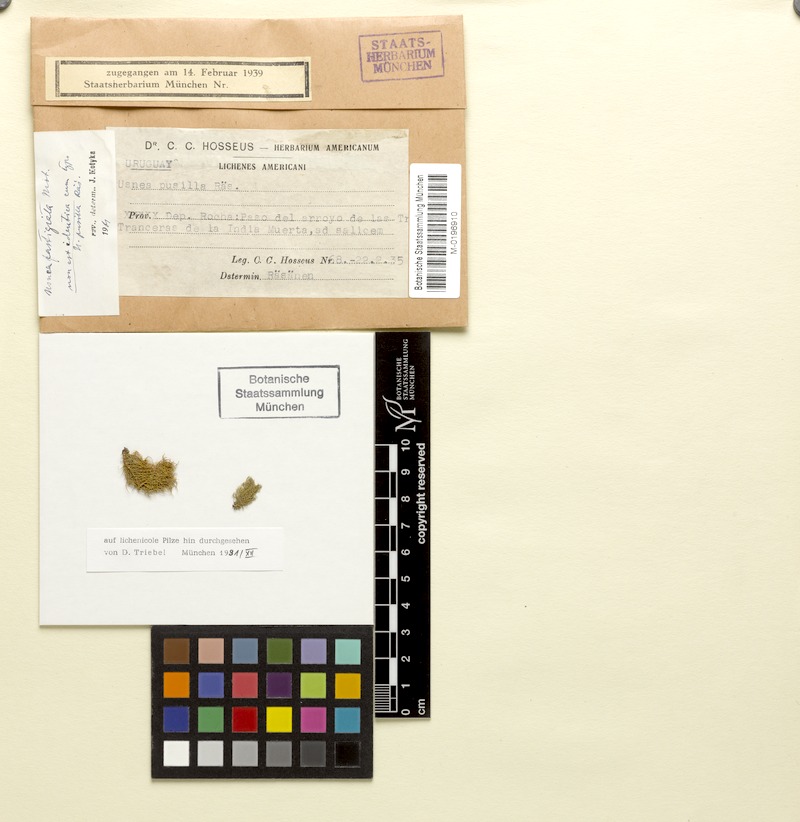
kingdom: Fungi
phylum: Ascomycota
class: Lecanoromycetes
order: Lecanorales
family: Parmeliaceae
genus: Usnea
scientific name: Usnea fastigiata
